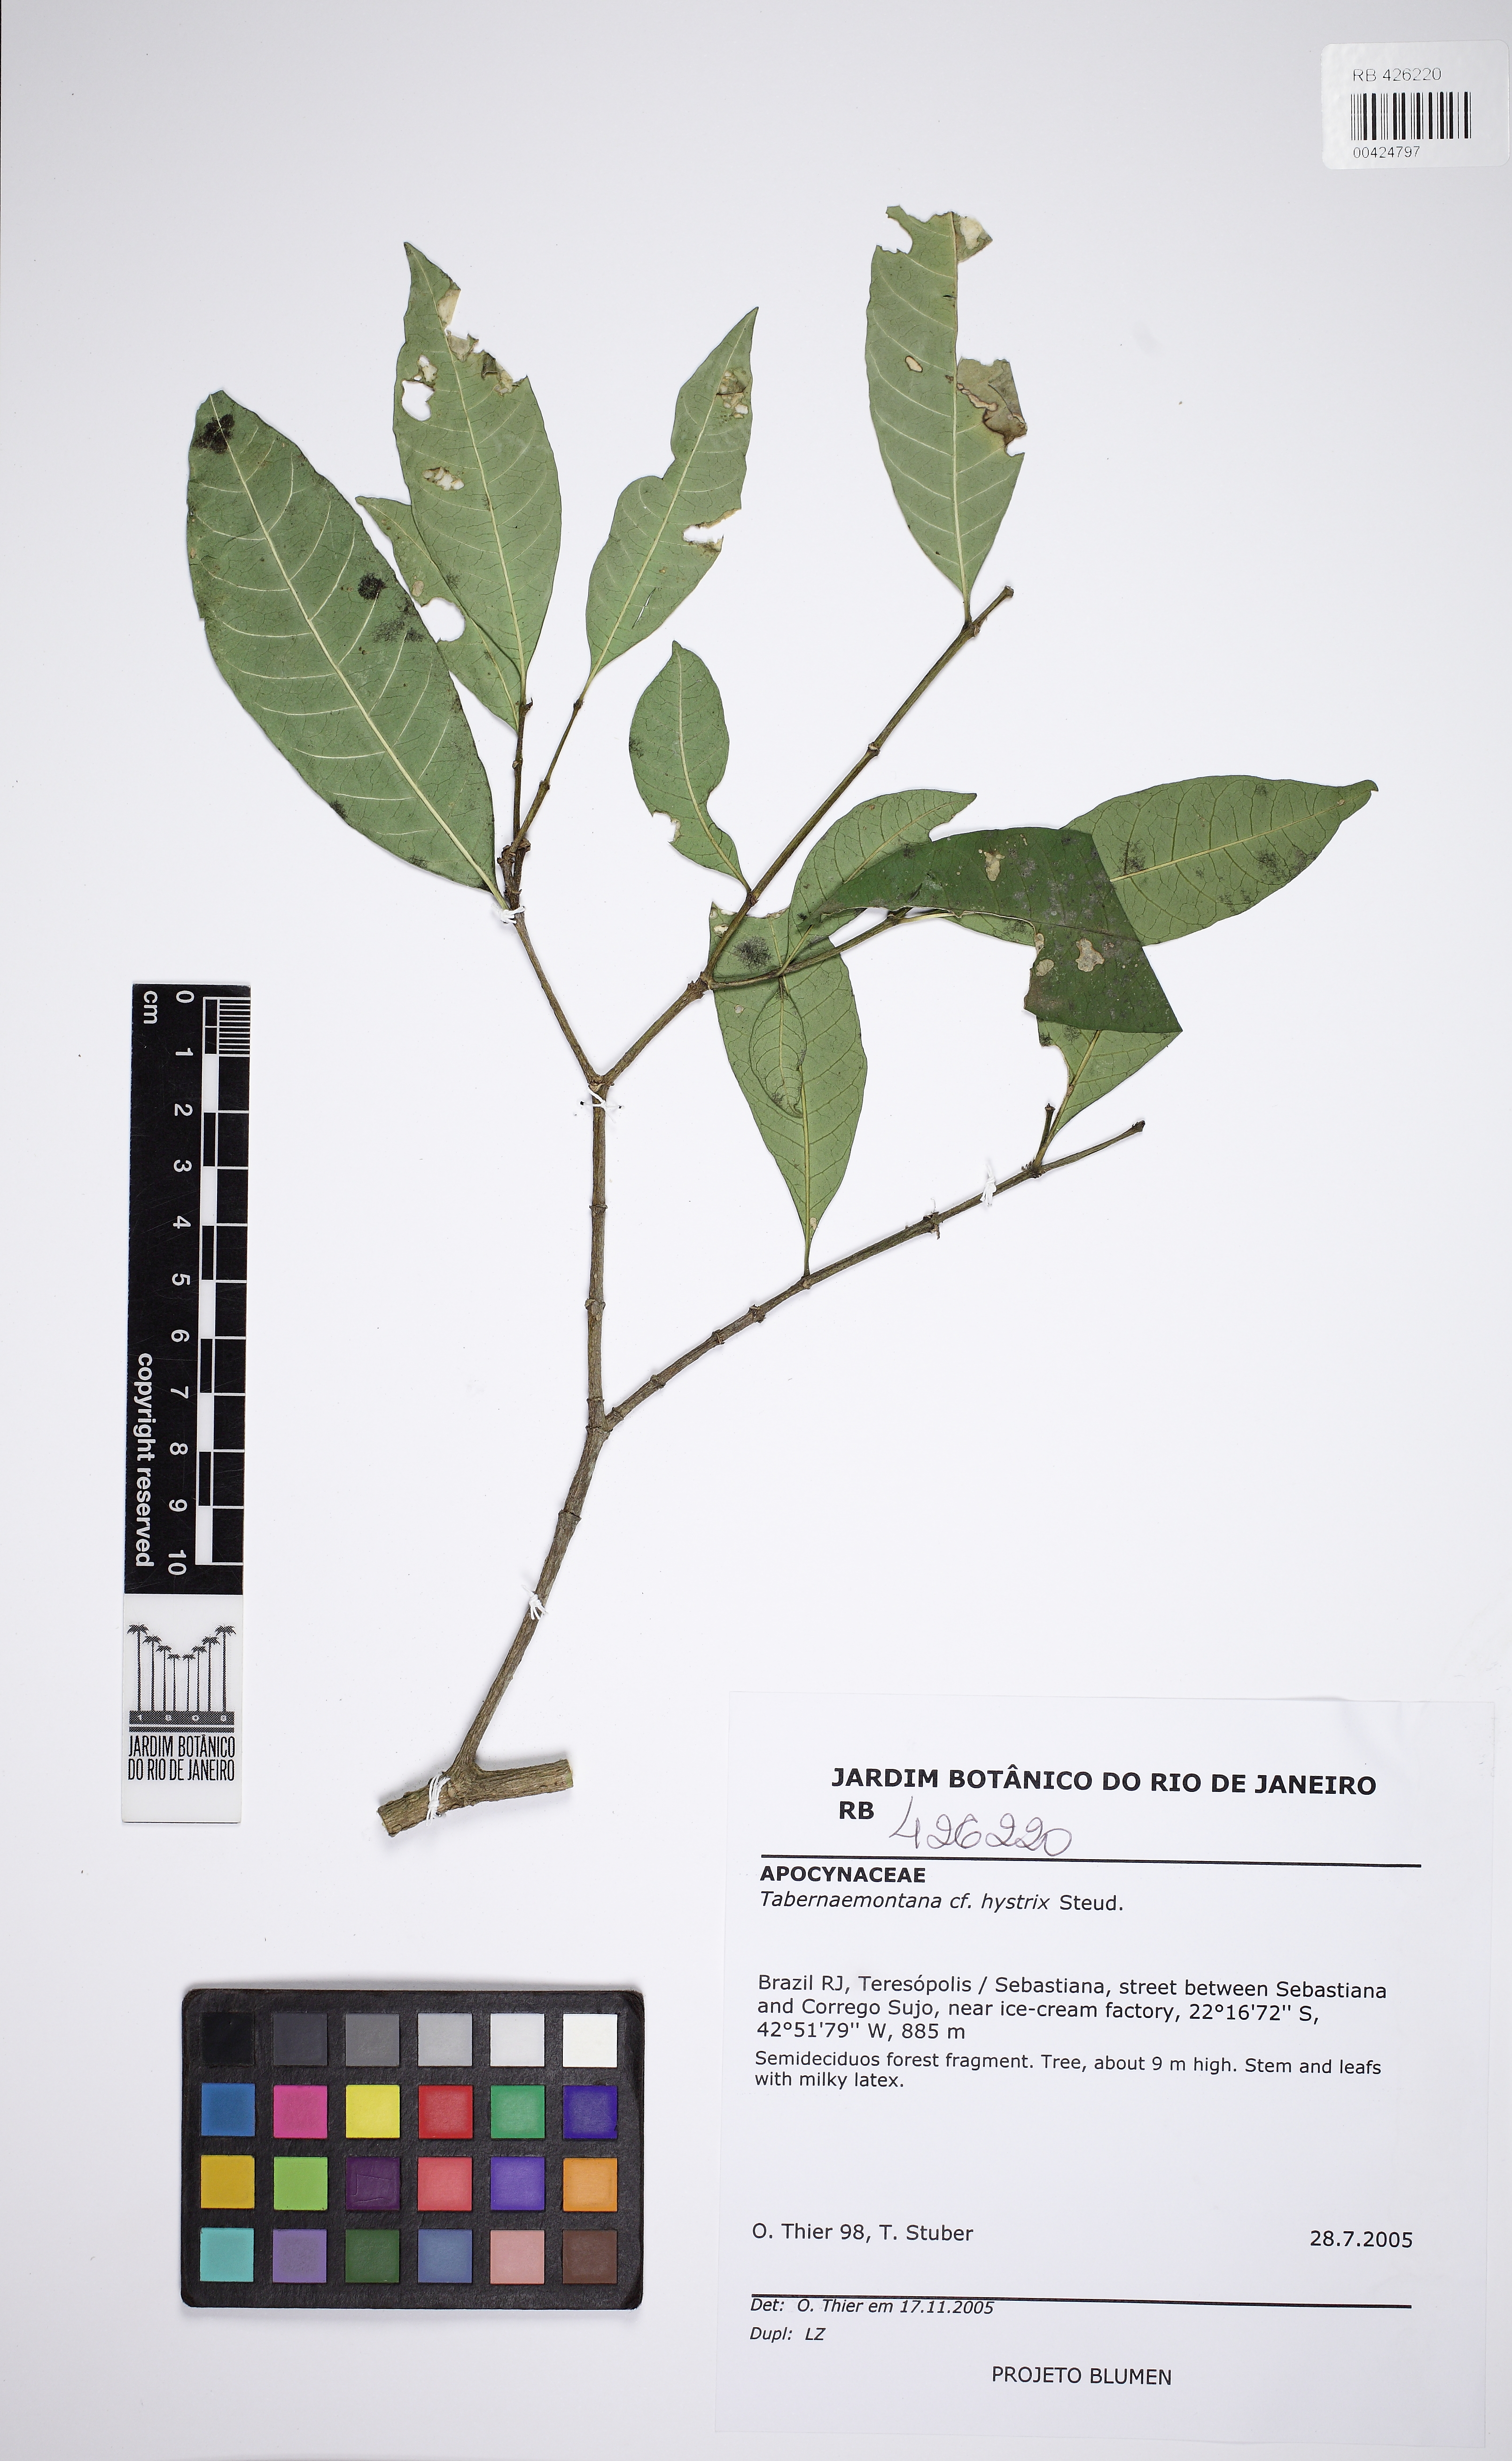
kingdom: Plantae
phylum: Tracheophyta
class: Magnoliopsida
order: Gentianales
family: Apocynaceae
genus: Tabernaemontana
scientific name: Tabernaemontana hystrix
